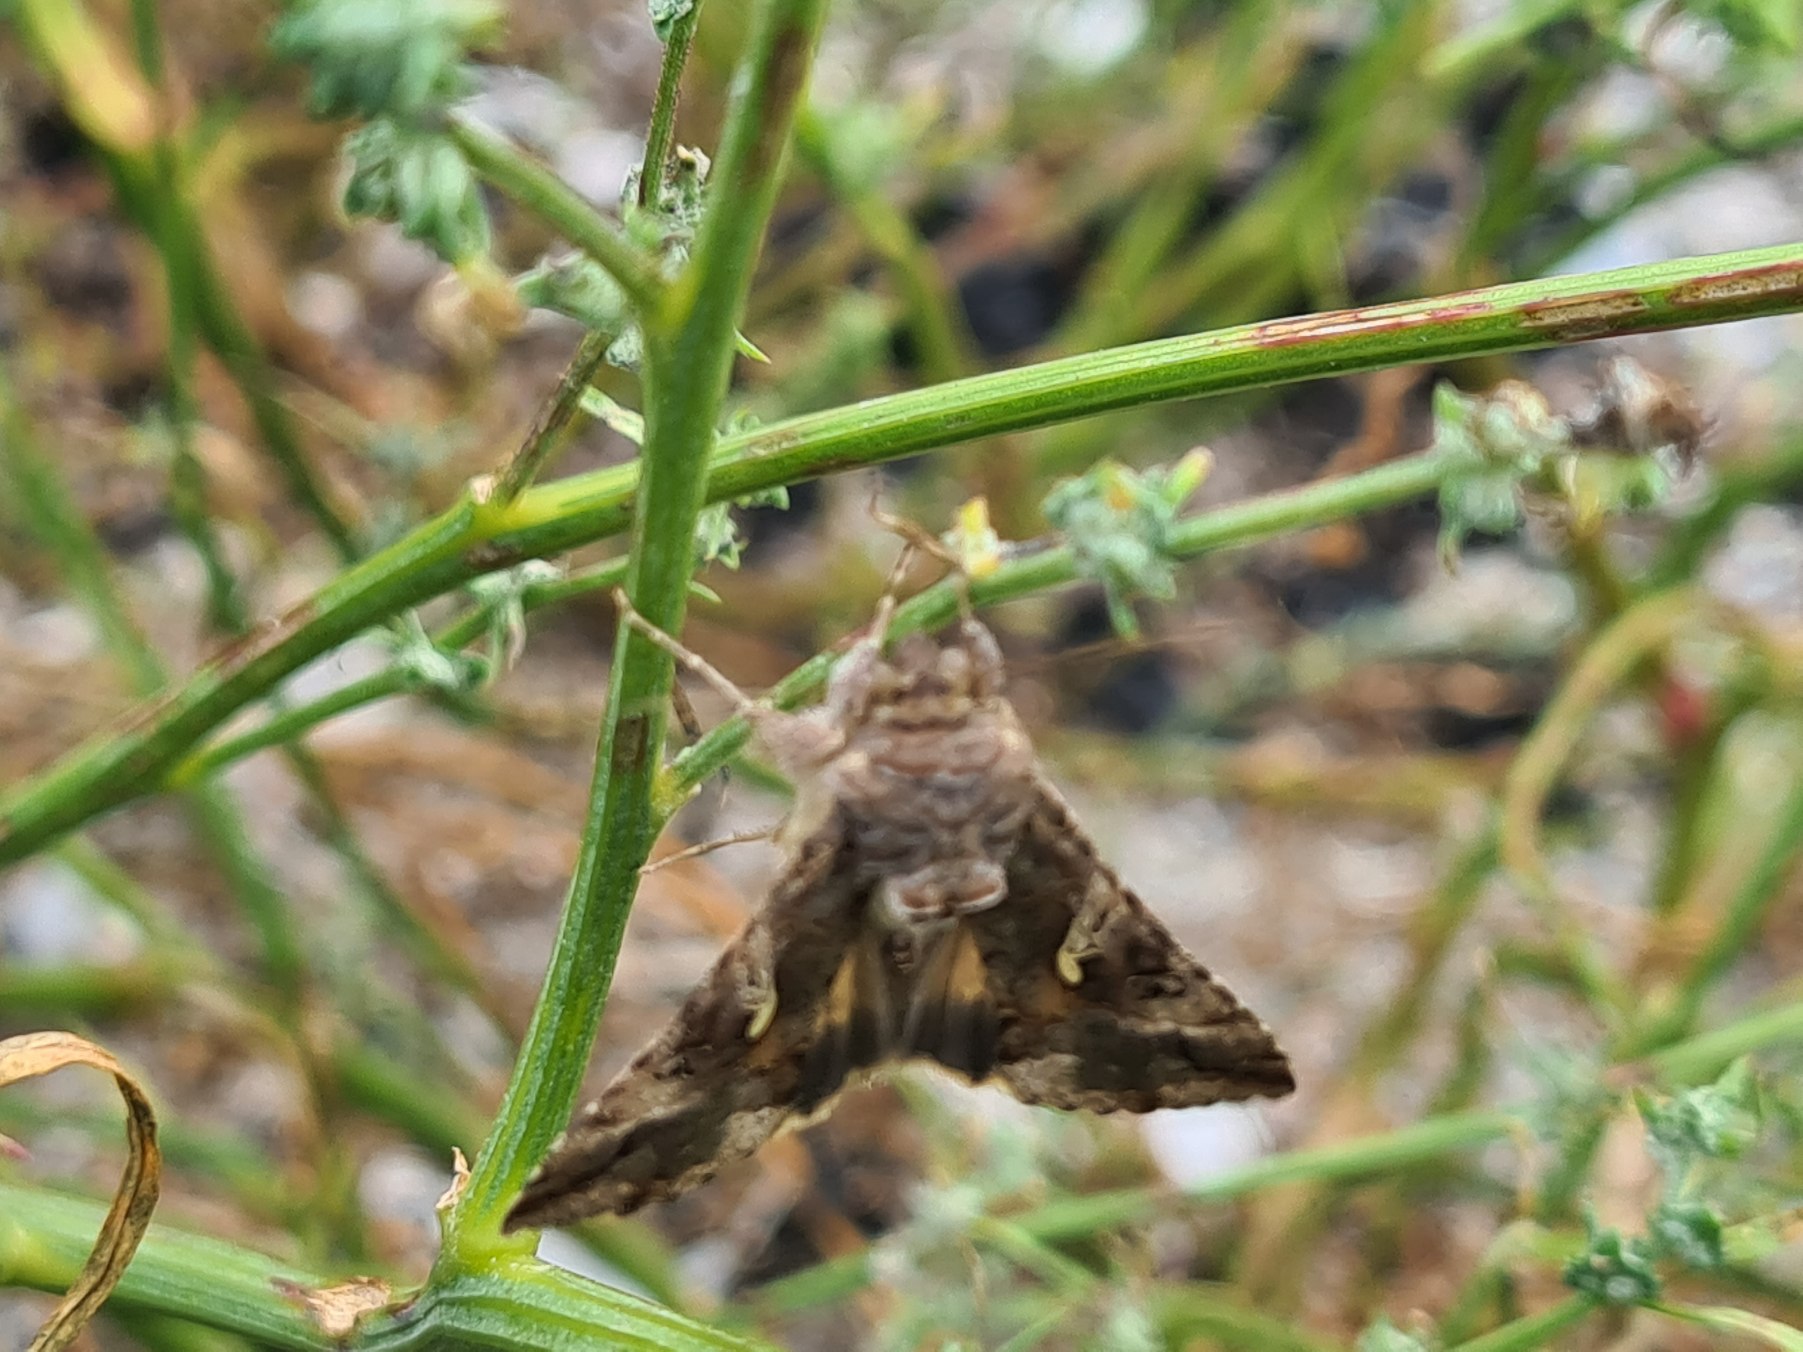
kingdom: Animalia
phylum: Arthropoda
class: Insecta
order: Lepidoptera
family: Noctuidae
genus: Autographa
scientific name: Autographa gamma
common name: Gammaugle
